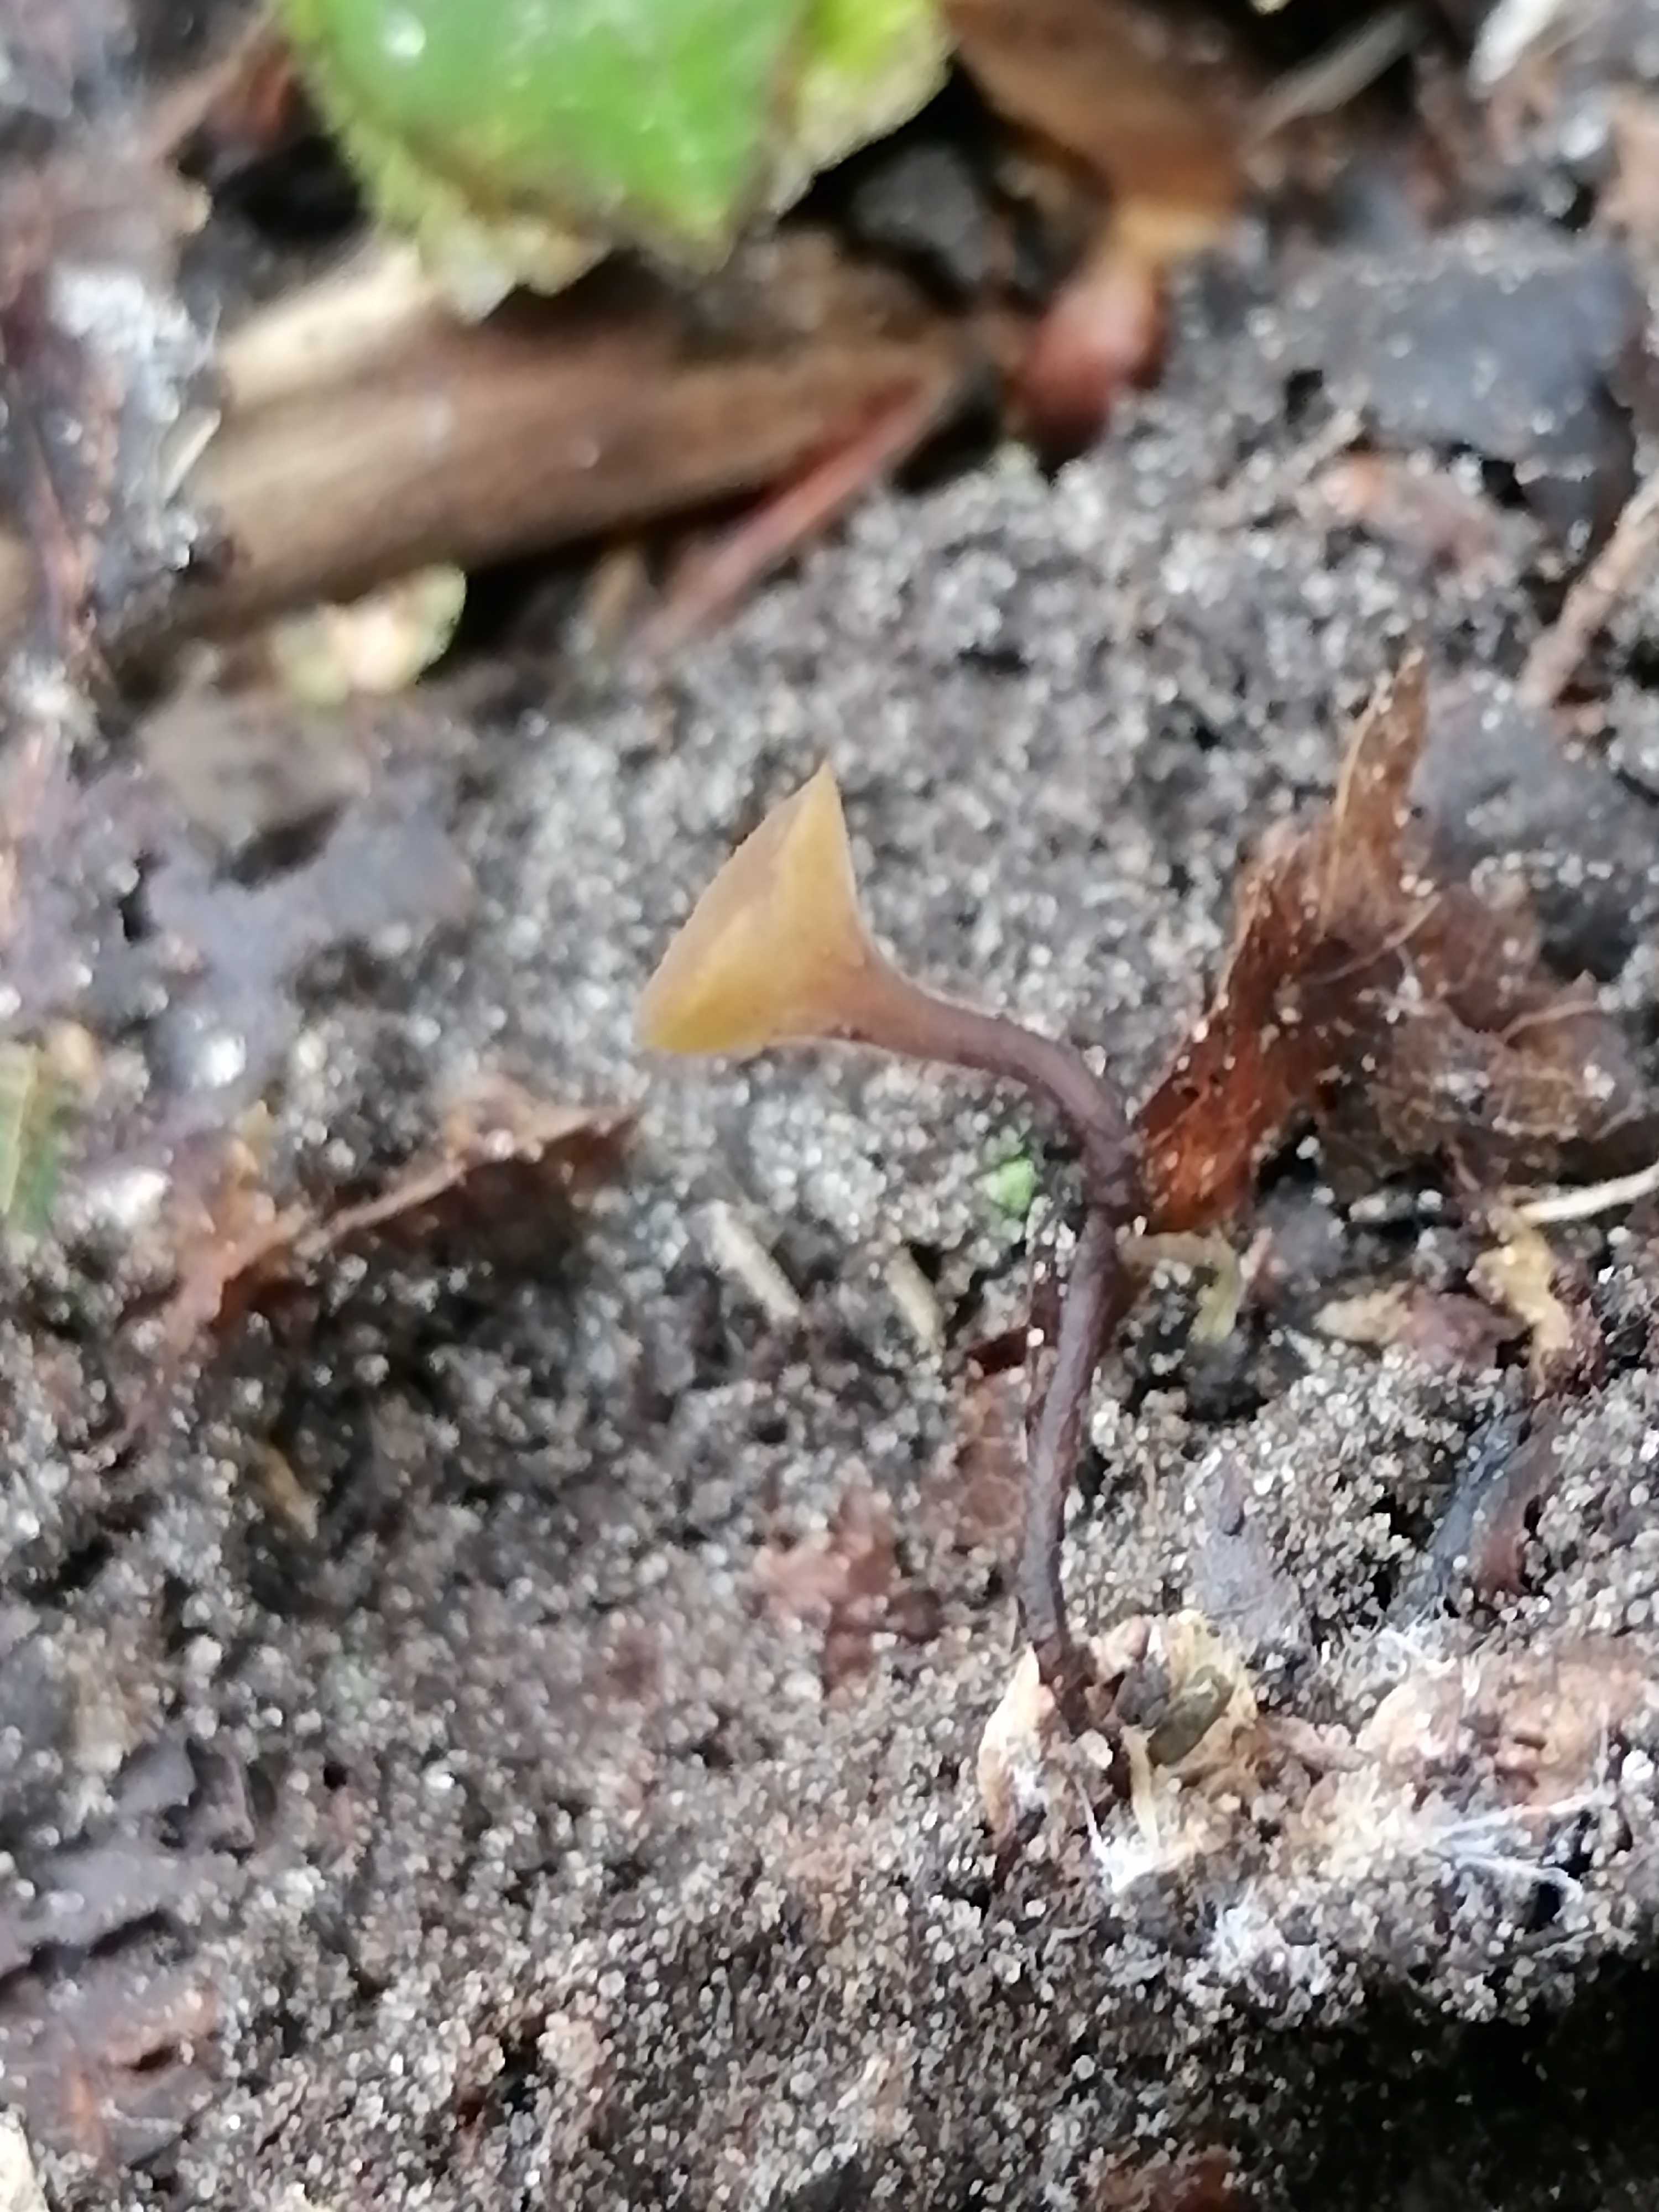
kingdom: Fungi
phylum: Ascomycota
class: Leotiomycetes
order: Helotiales
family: Rutstroemiaceae
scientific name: Rutstroemiaceae
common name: brunskivefamilien
